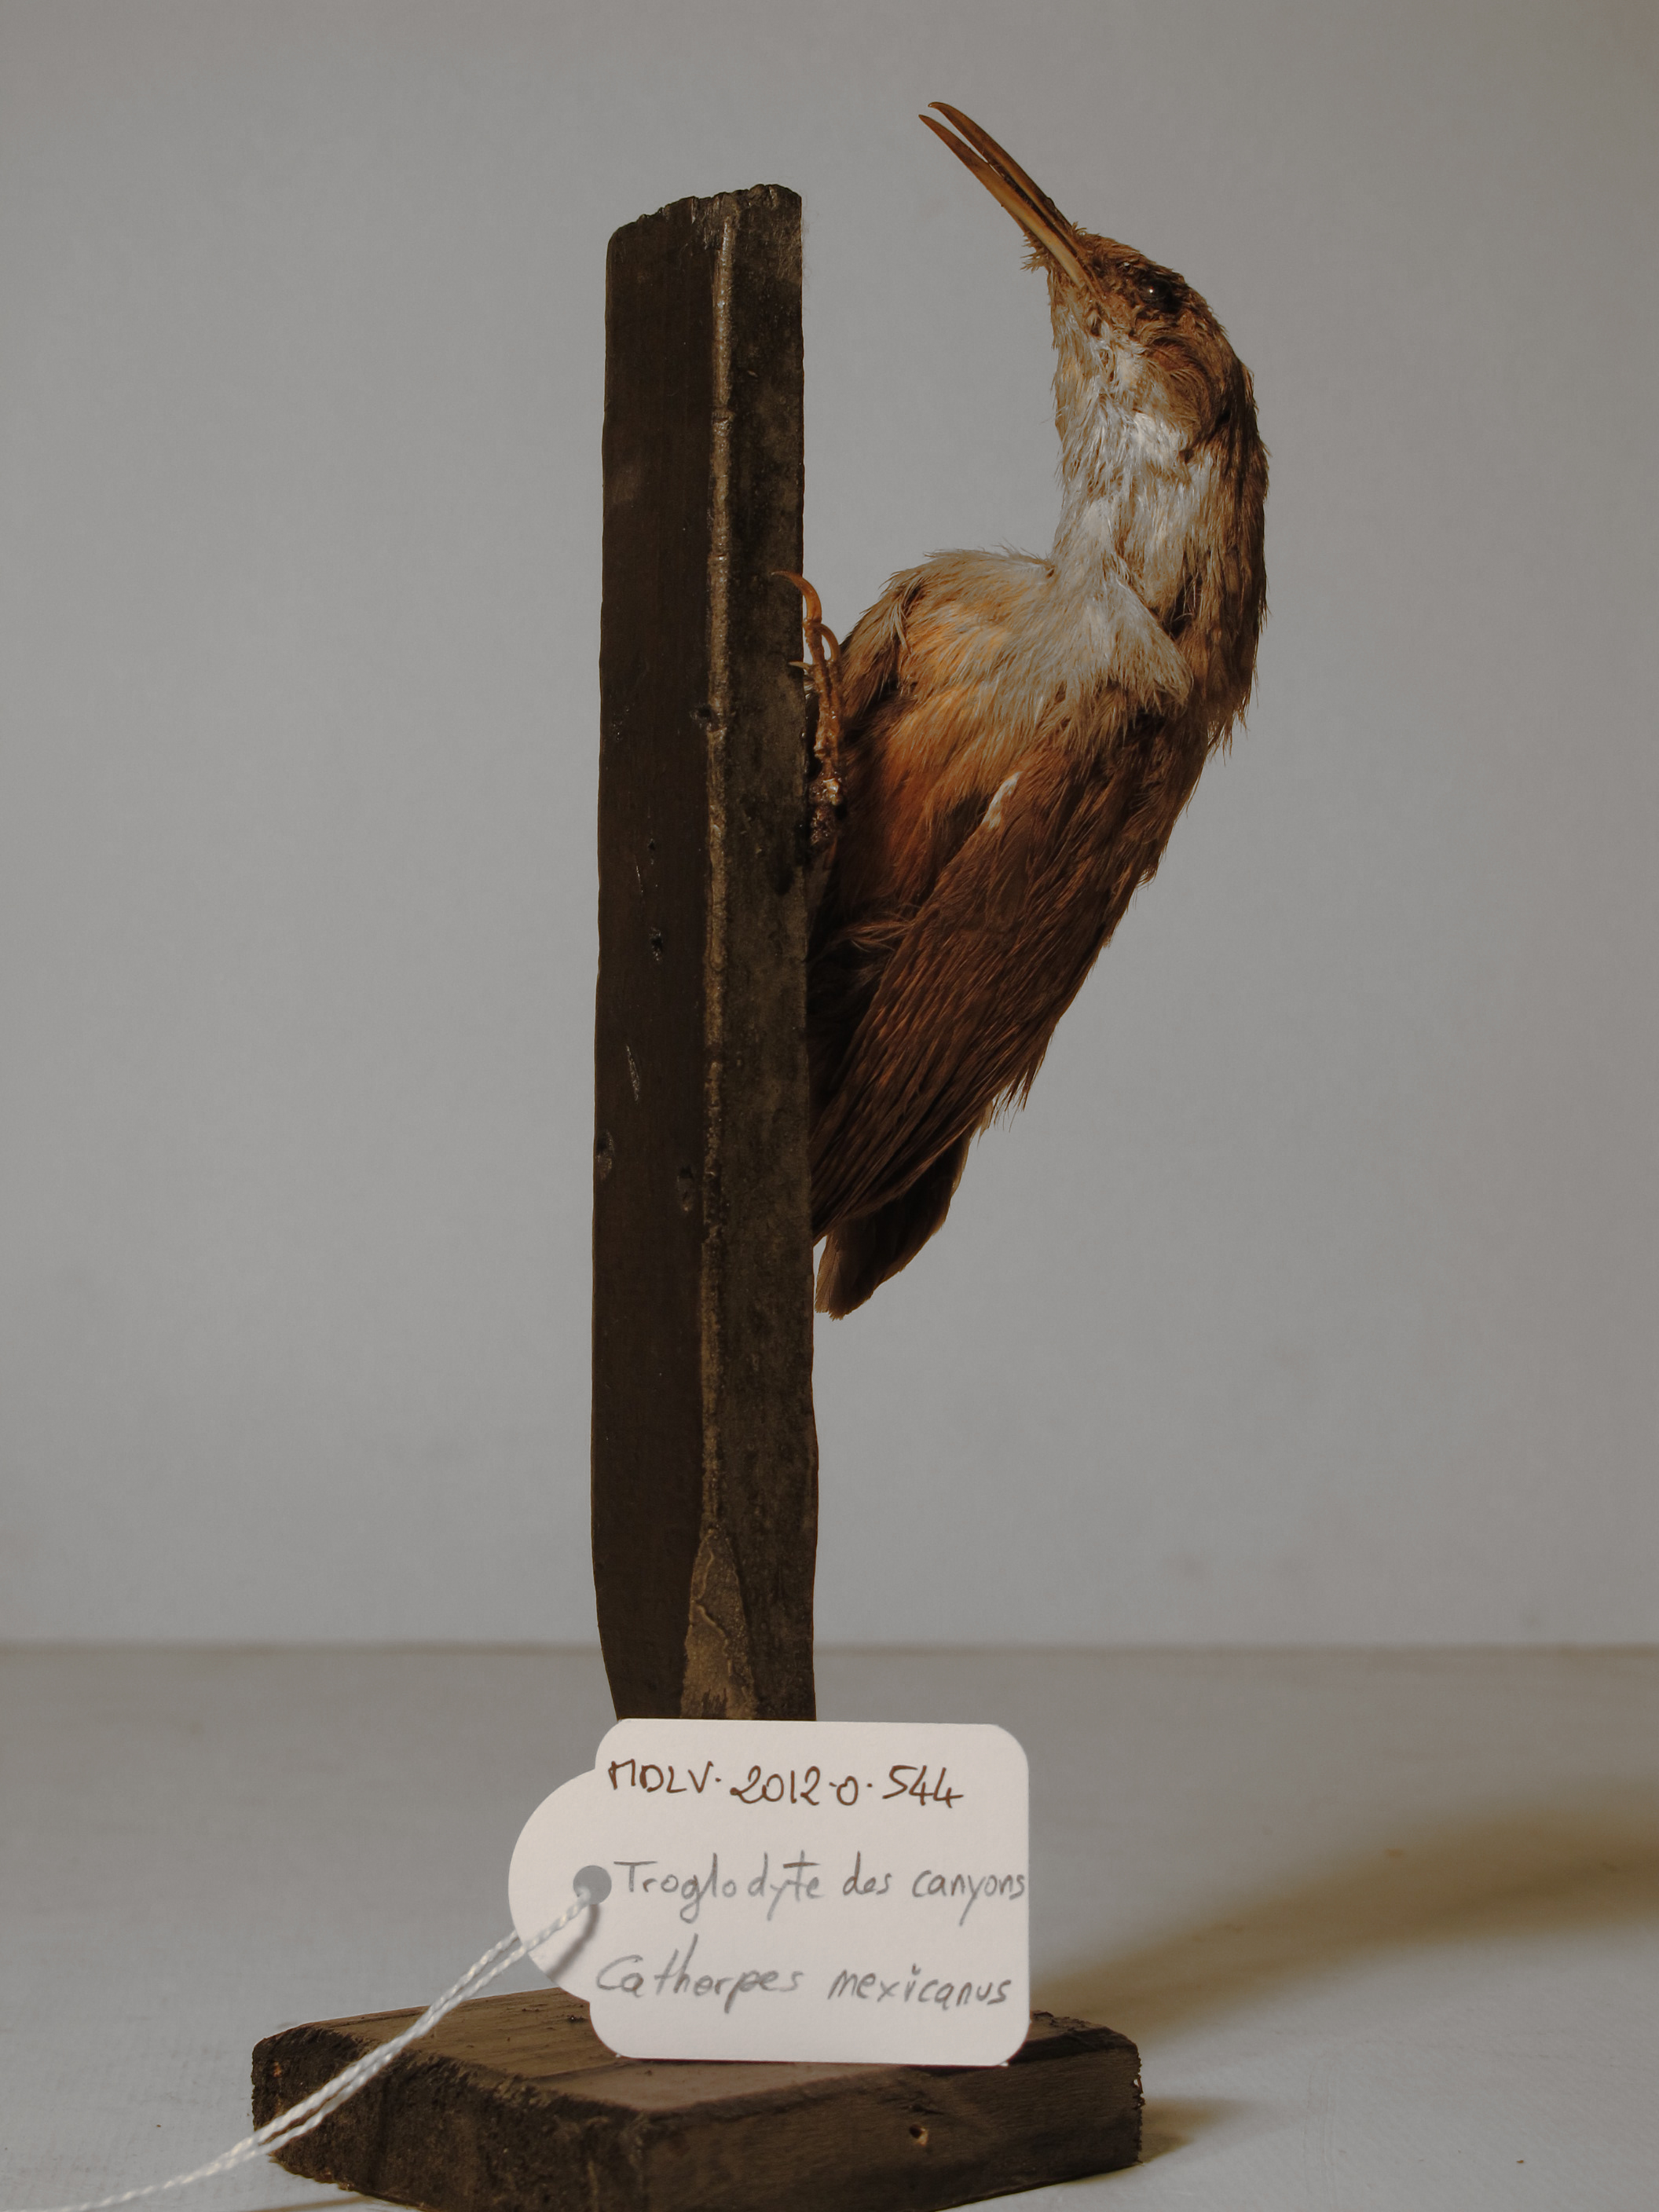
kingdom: Animalia
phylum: Chordata
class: Aves
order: Passeriformes
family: Troglodytidae
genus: Catherpes
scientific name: Catherpes mexicanus
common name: Canyon Wren
